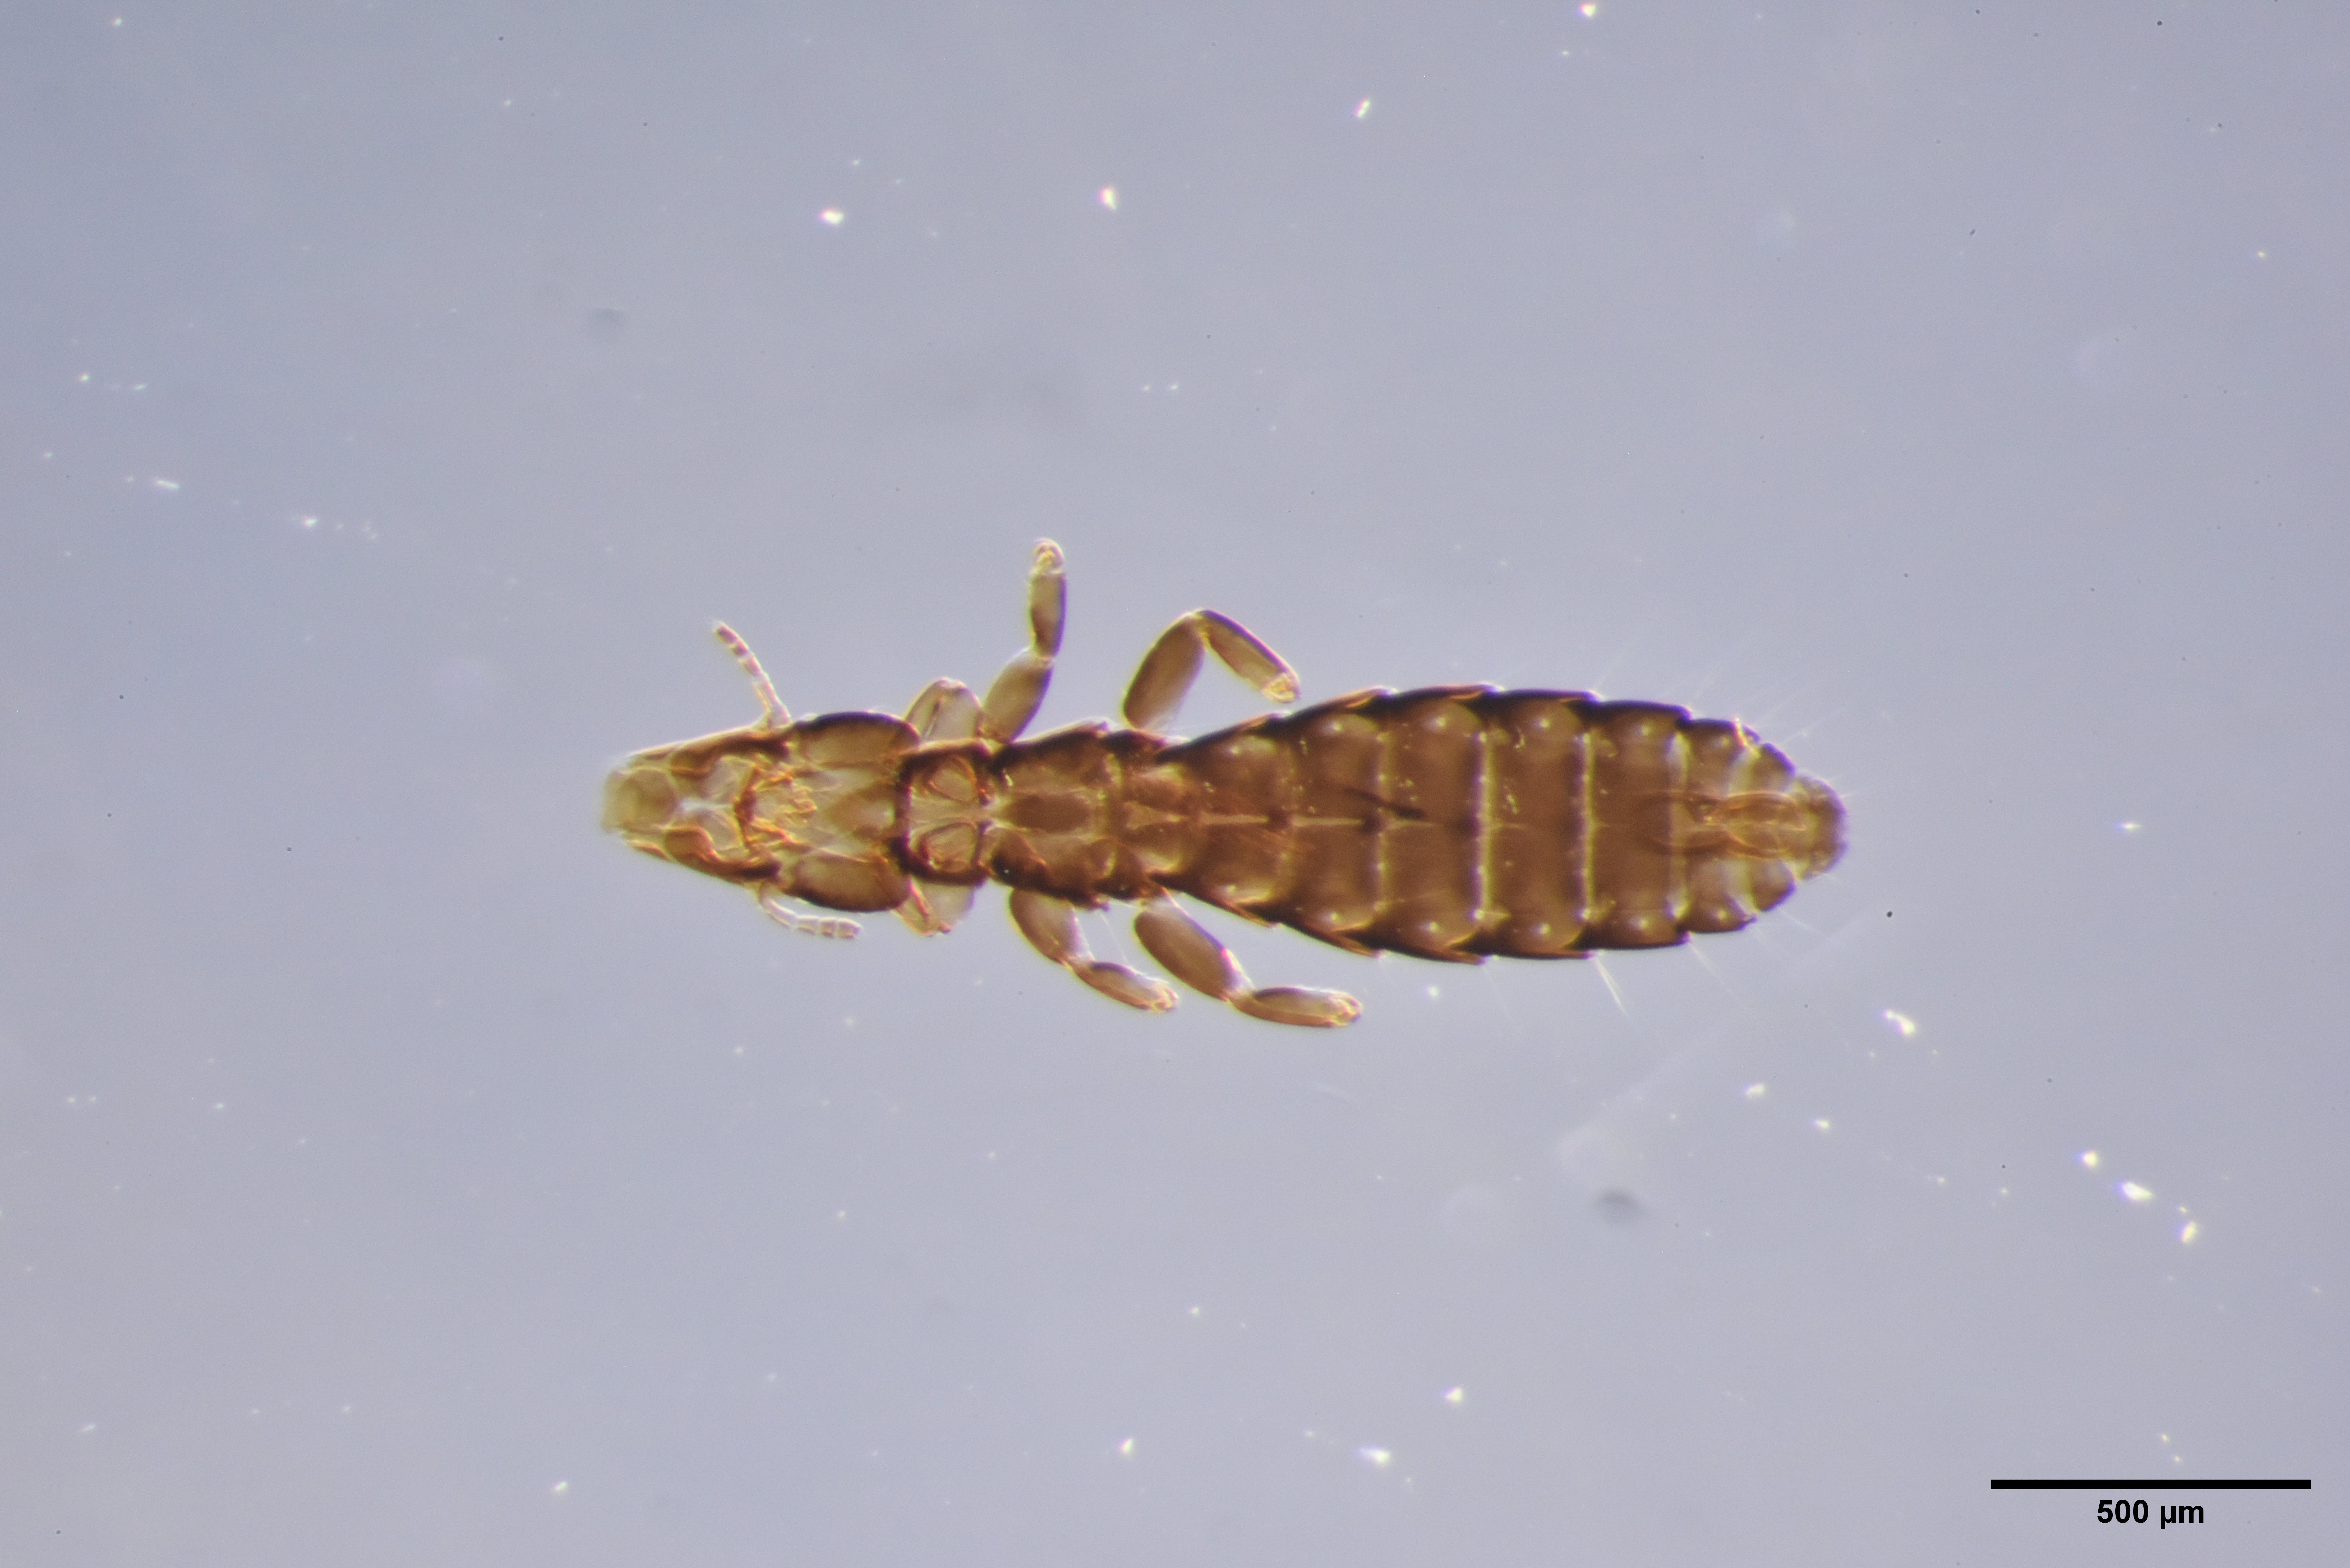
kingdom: Animalia
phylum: Arthropoda
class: Insecta
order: Psocodea
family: Philopteridae
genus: Quadraceps
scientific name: Quadraceps similis
